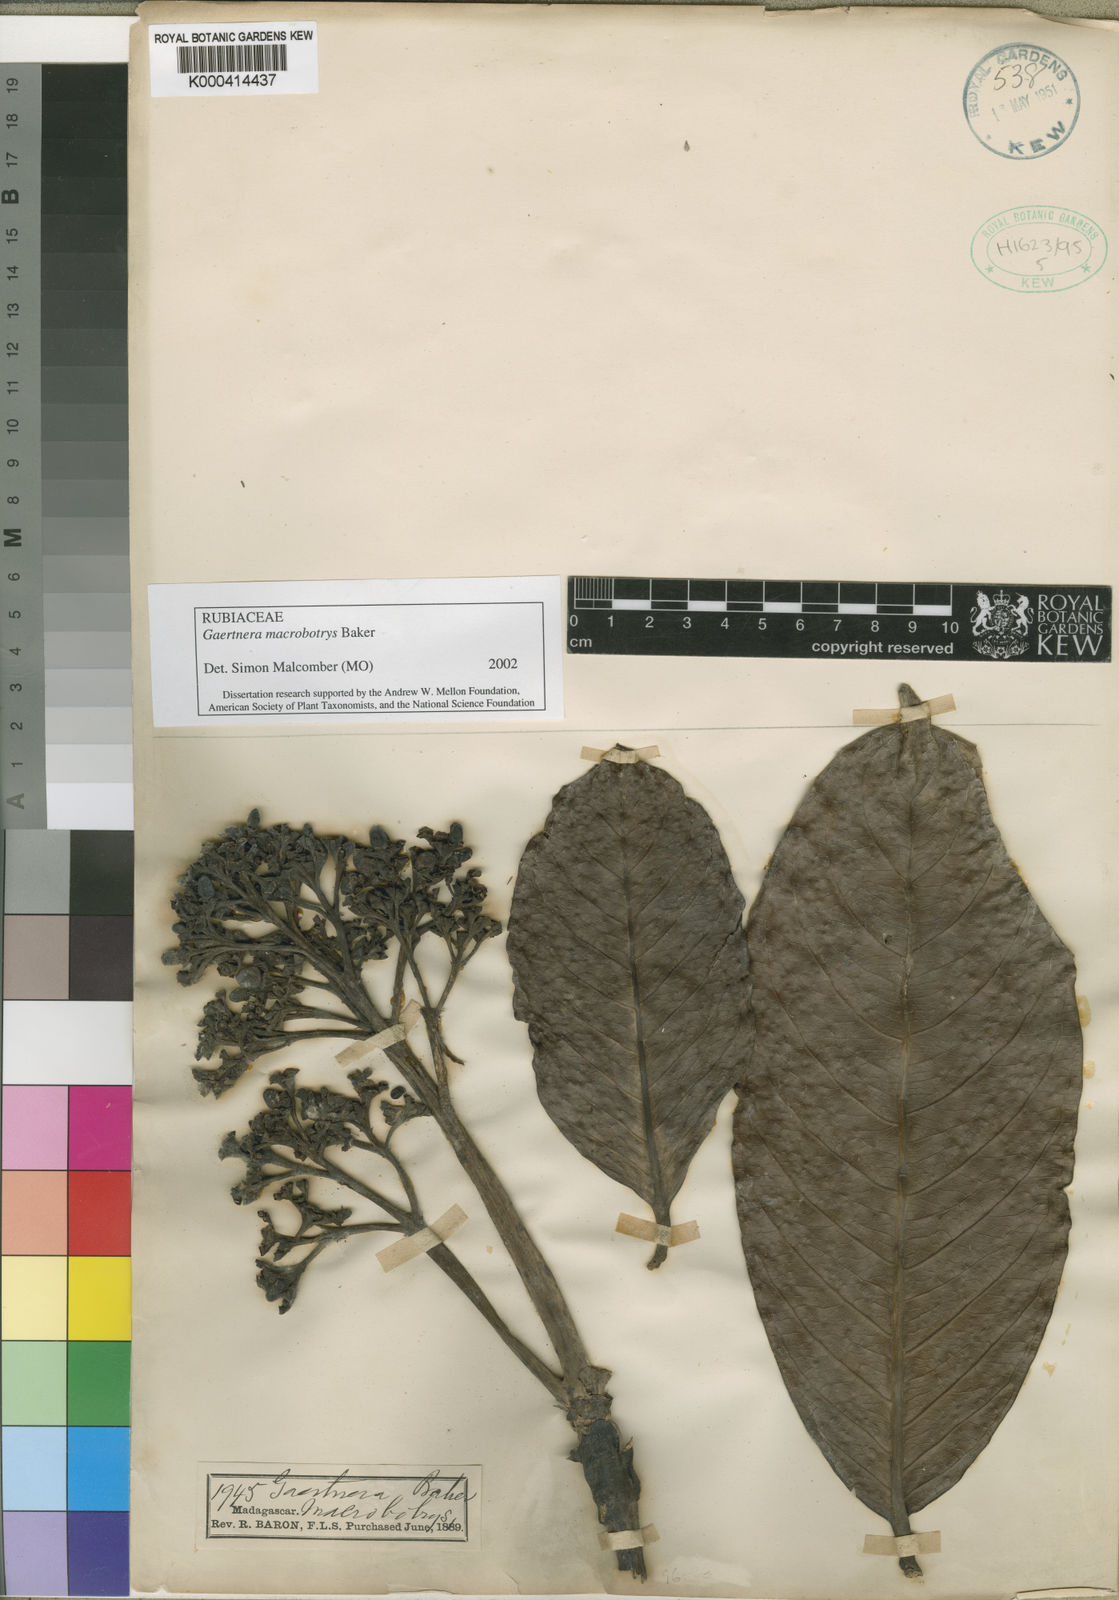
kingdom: Plantae
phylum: Tracheophyta
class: Magnoliopsida
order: Gentianales
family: Rubiaceae
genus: Gaertnera
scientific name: Gaertnera macrobotrys
